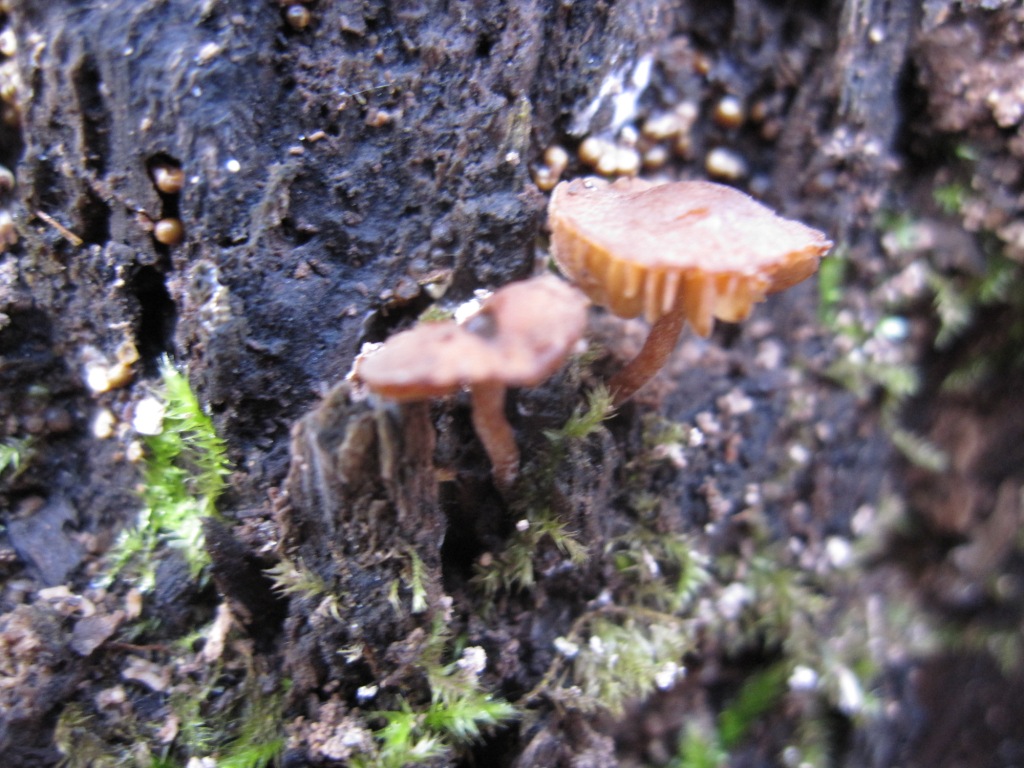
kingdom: Fungi
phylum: Basidiomycota
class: Agaricomycetes
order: Agaricales
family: Crepidotaceae
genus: Simocybe
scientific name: Simocybe centunculus
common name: enlig skyggehat
